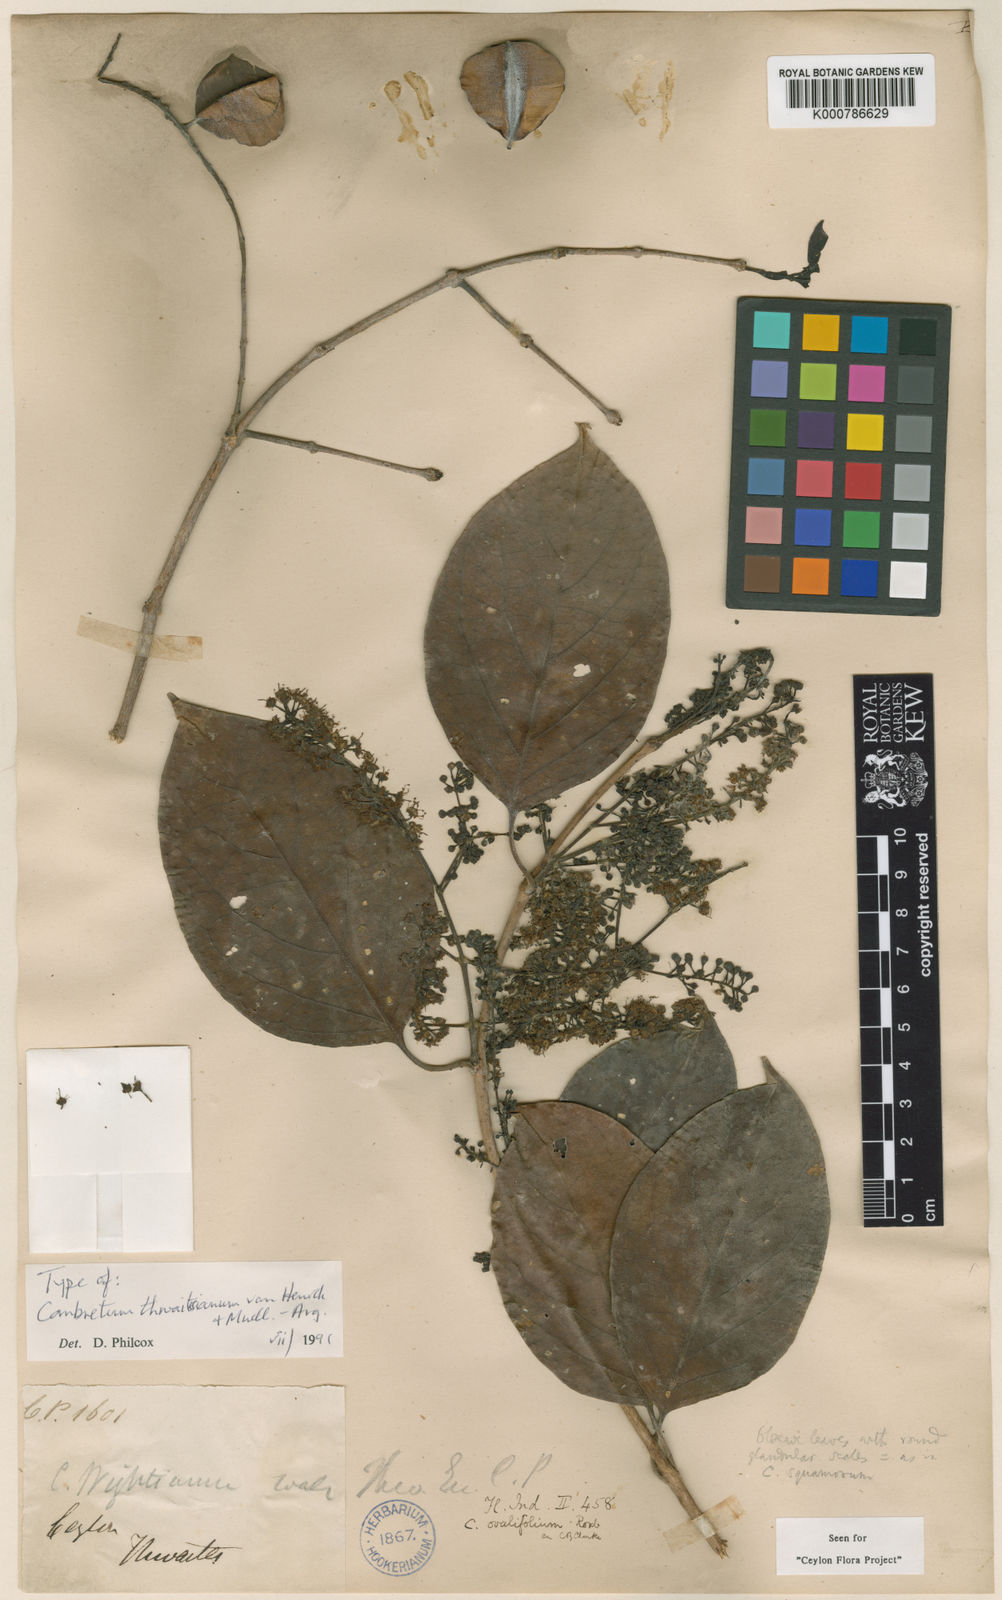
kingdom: Plantae
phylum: Tracheophyta
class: Magnoliopsida
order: Myrtales
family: Combretaceae
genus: Combretum
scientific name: Combretum
